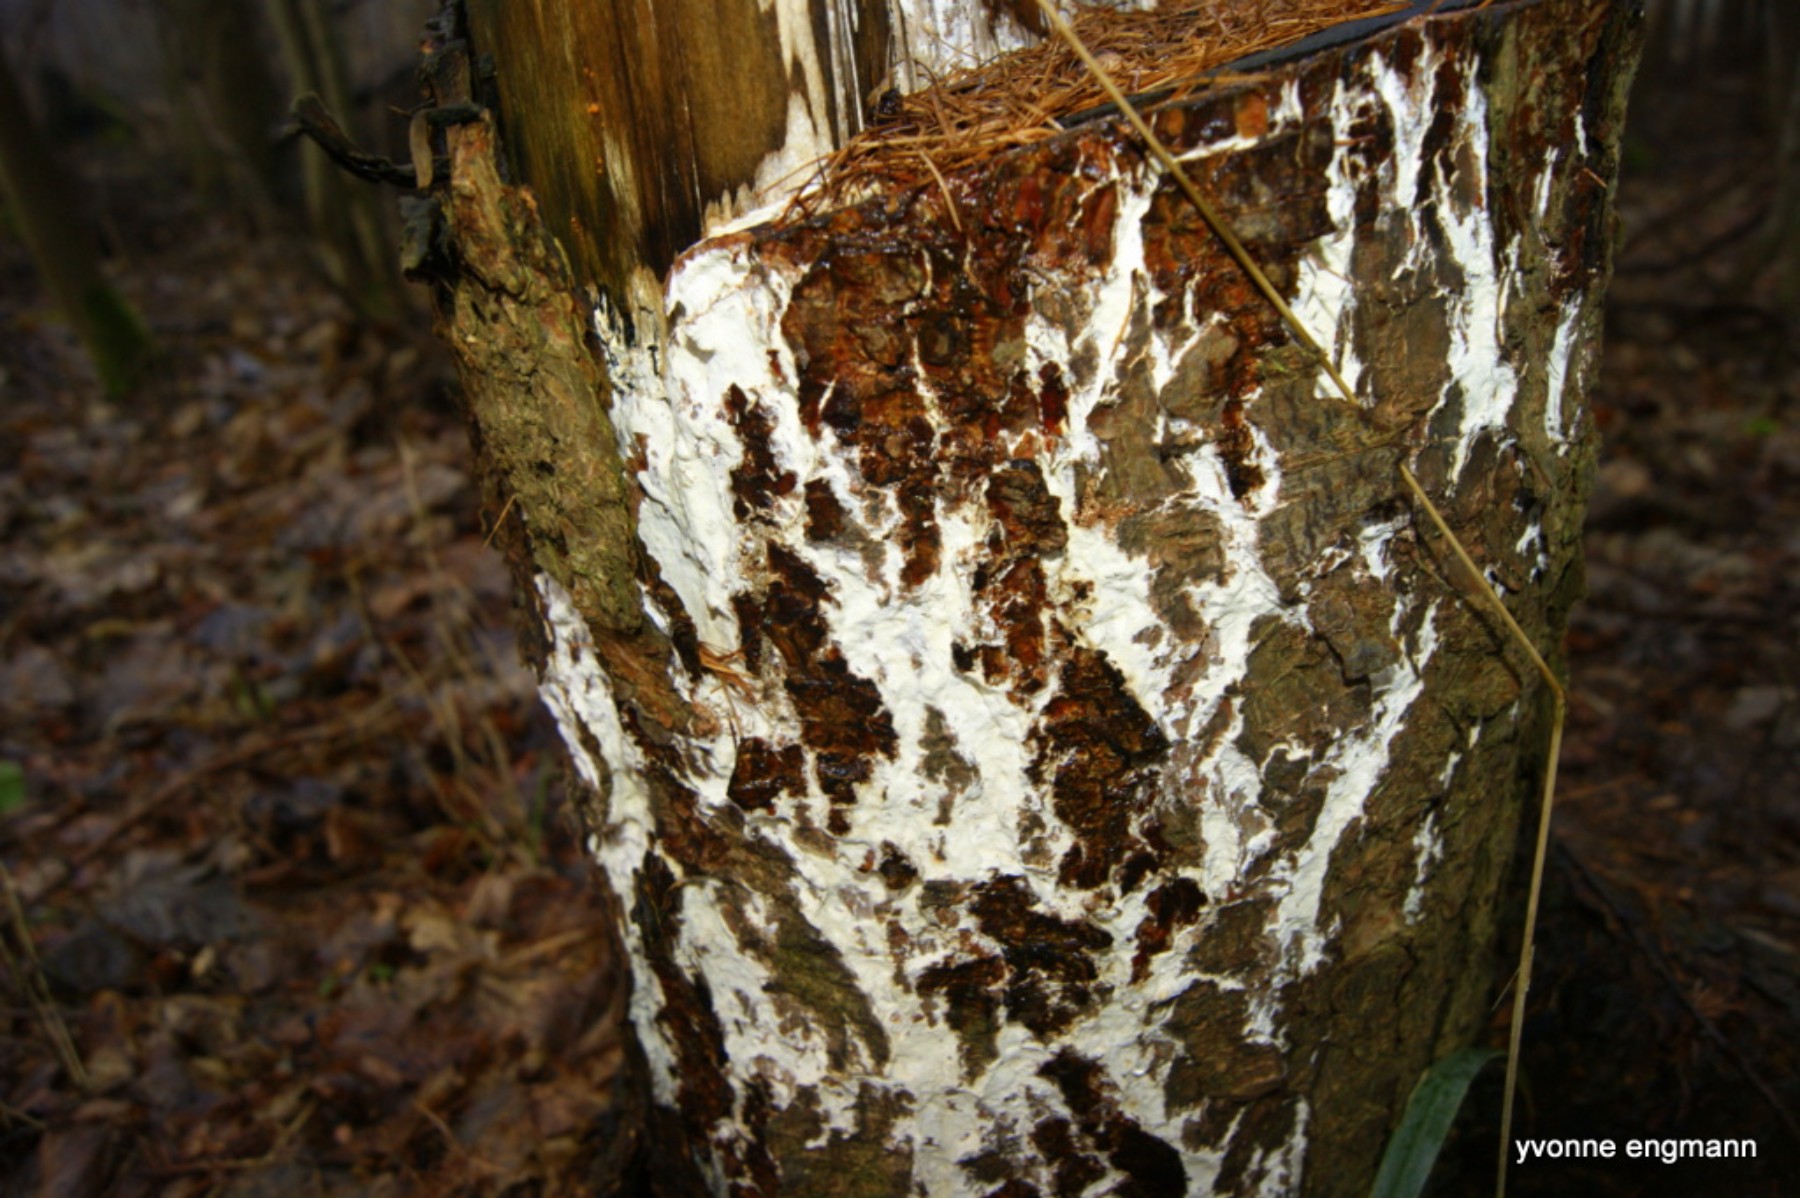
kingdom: Fungi
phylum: Basidiomycota
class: Agaricomycetes
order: Polyporales
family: Fomitopsidaceae
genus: Daedalea
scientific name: Daedalea xantha
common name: gul sejporesvamp
